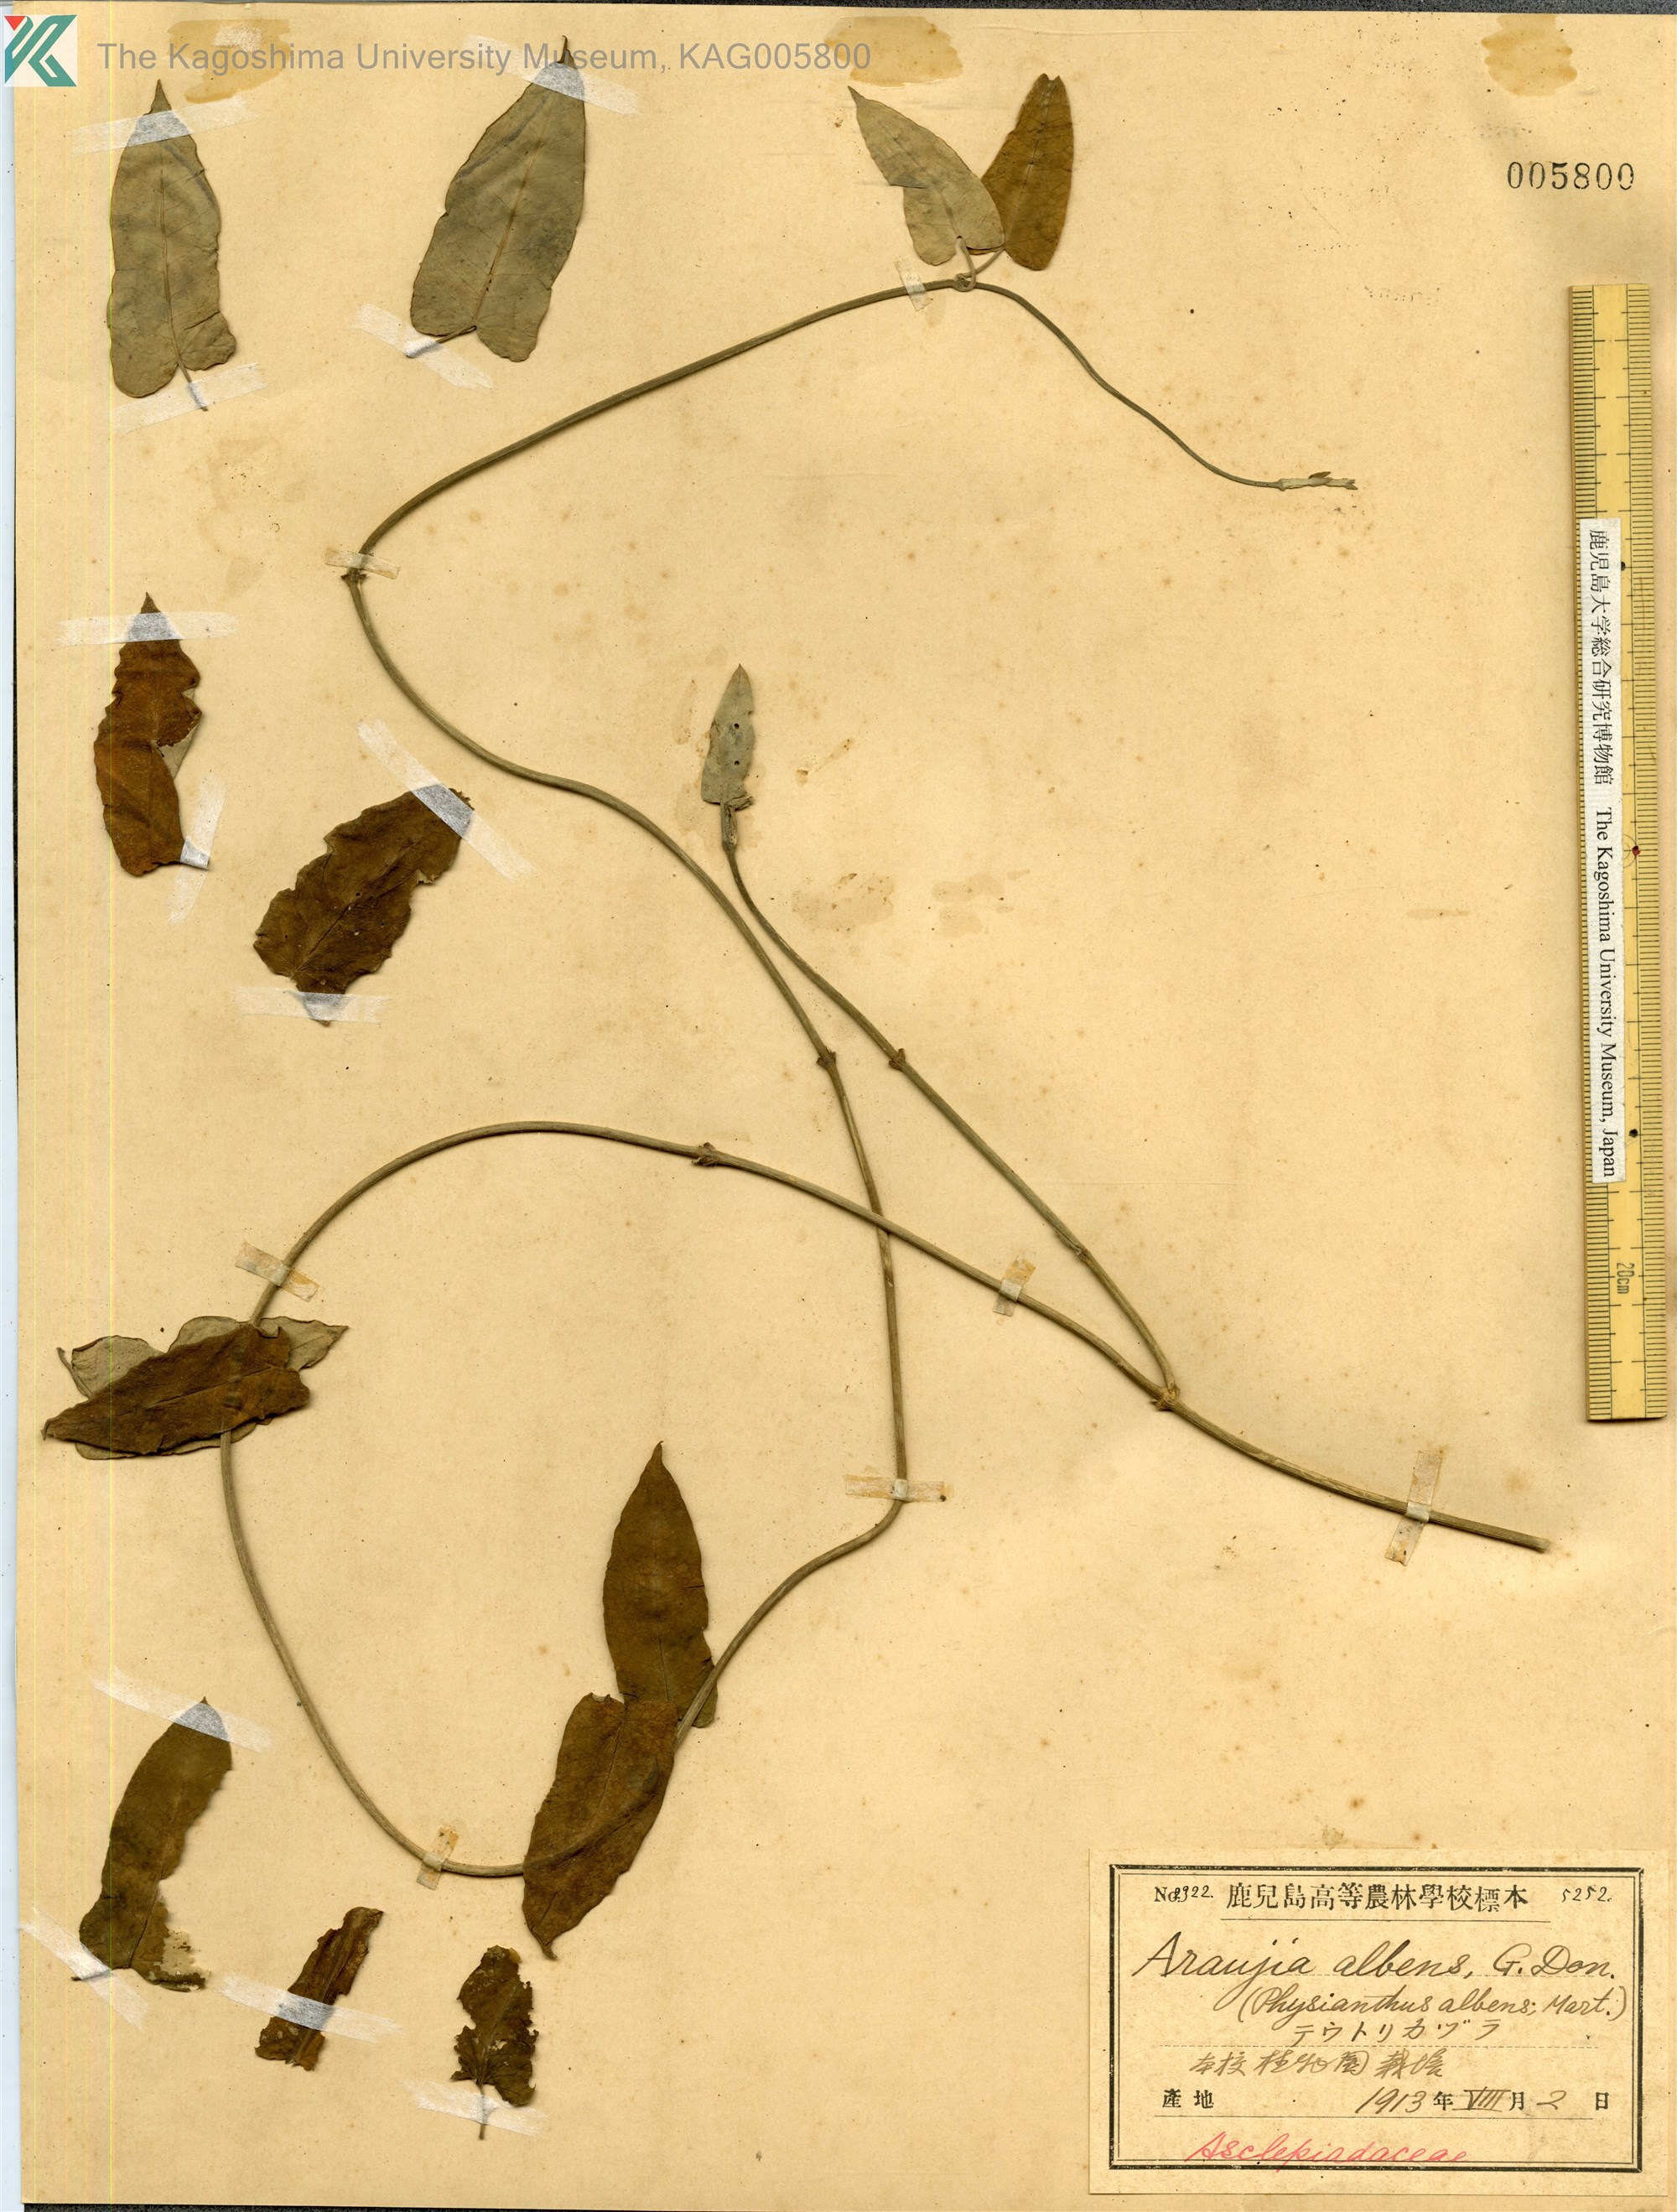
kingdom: Plantae
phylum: Tracheophyta
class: Magnoliopsida
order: Gentianales
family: Apocynaceae
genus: Araujia
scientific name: Araujia sericifera
